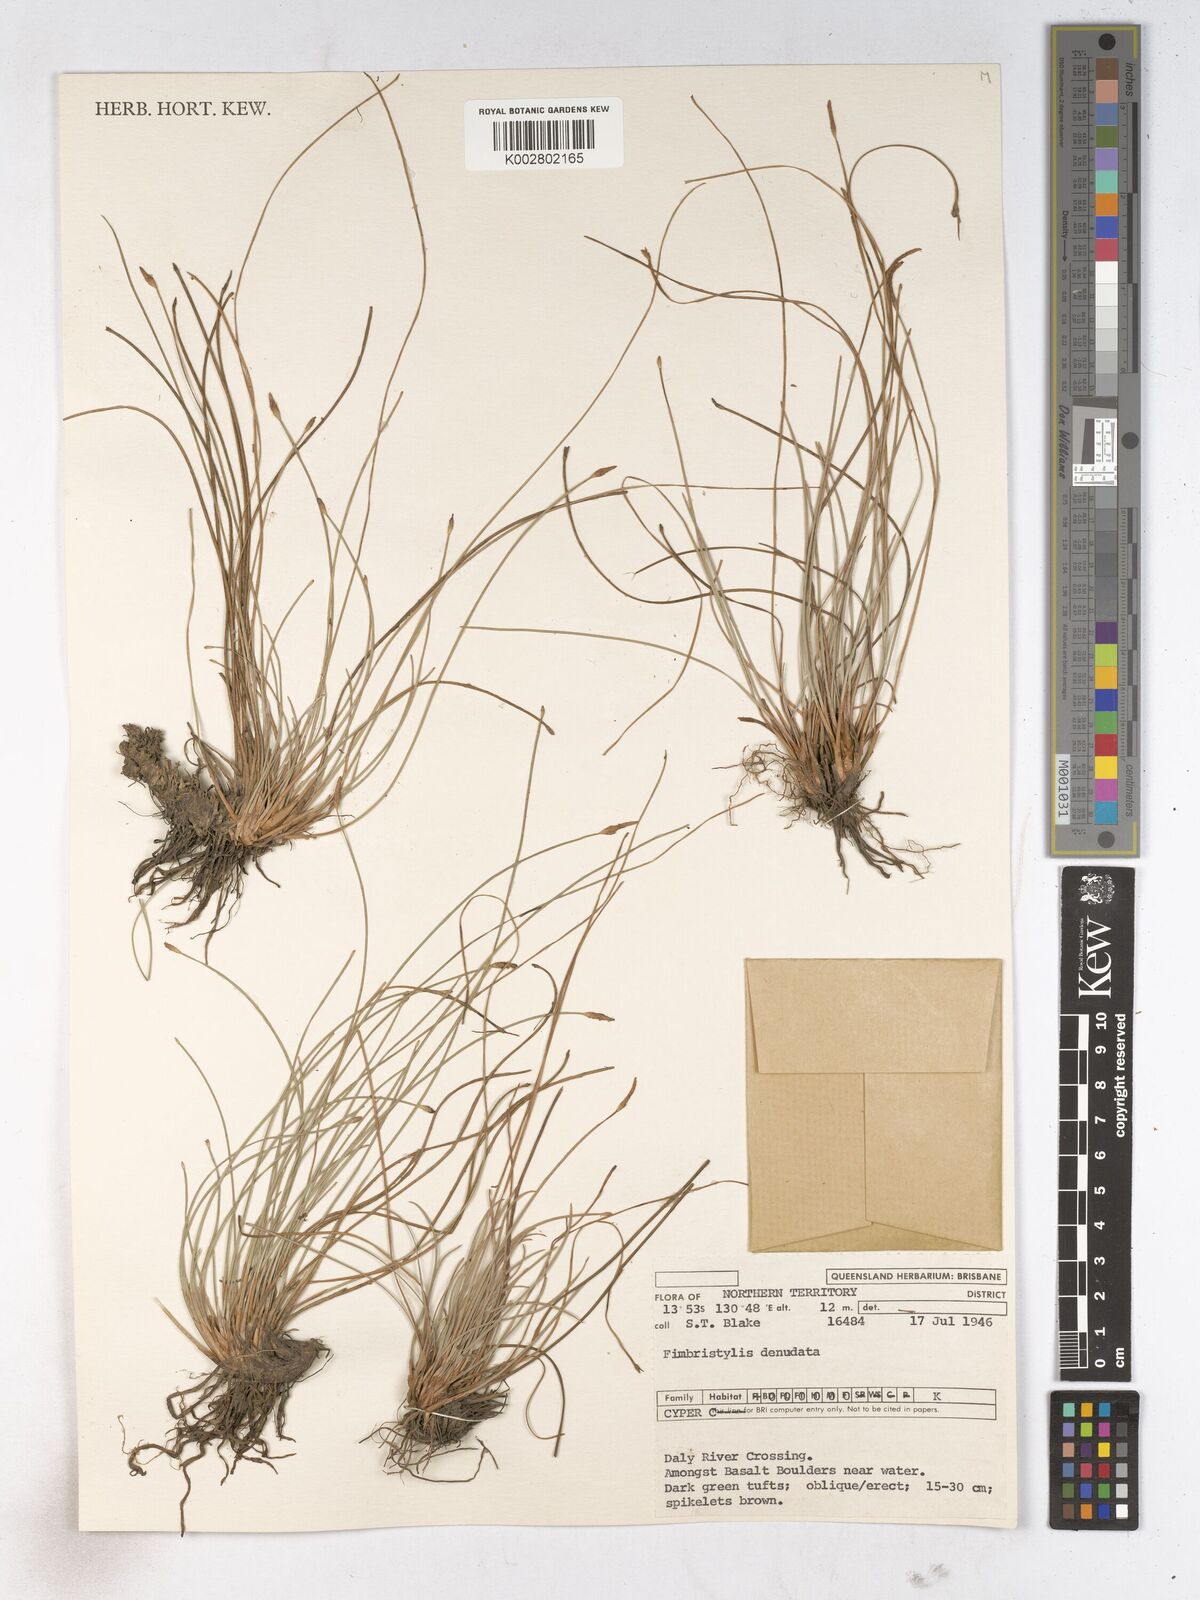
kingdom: Plantae
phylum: Tracheophyta
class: Liliopsida
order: Poales
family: Cyperaceae
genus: Fimbristylis
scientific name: Fimbristylis denudata
